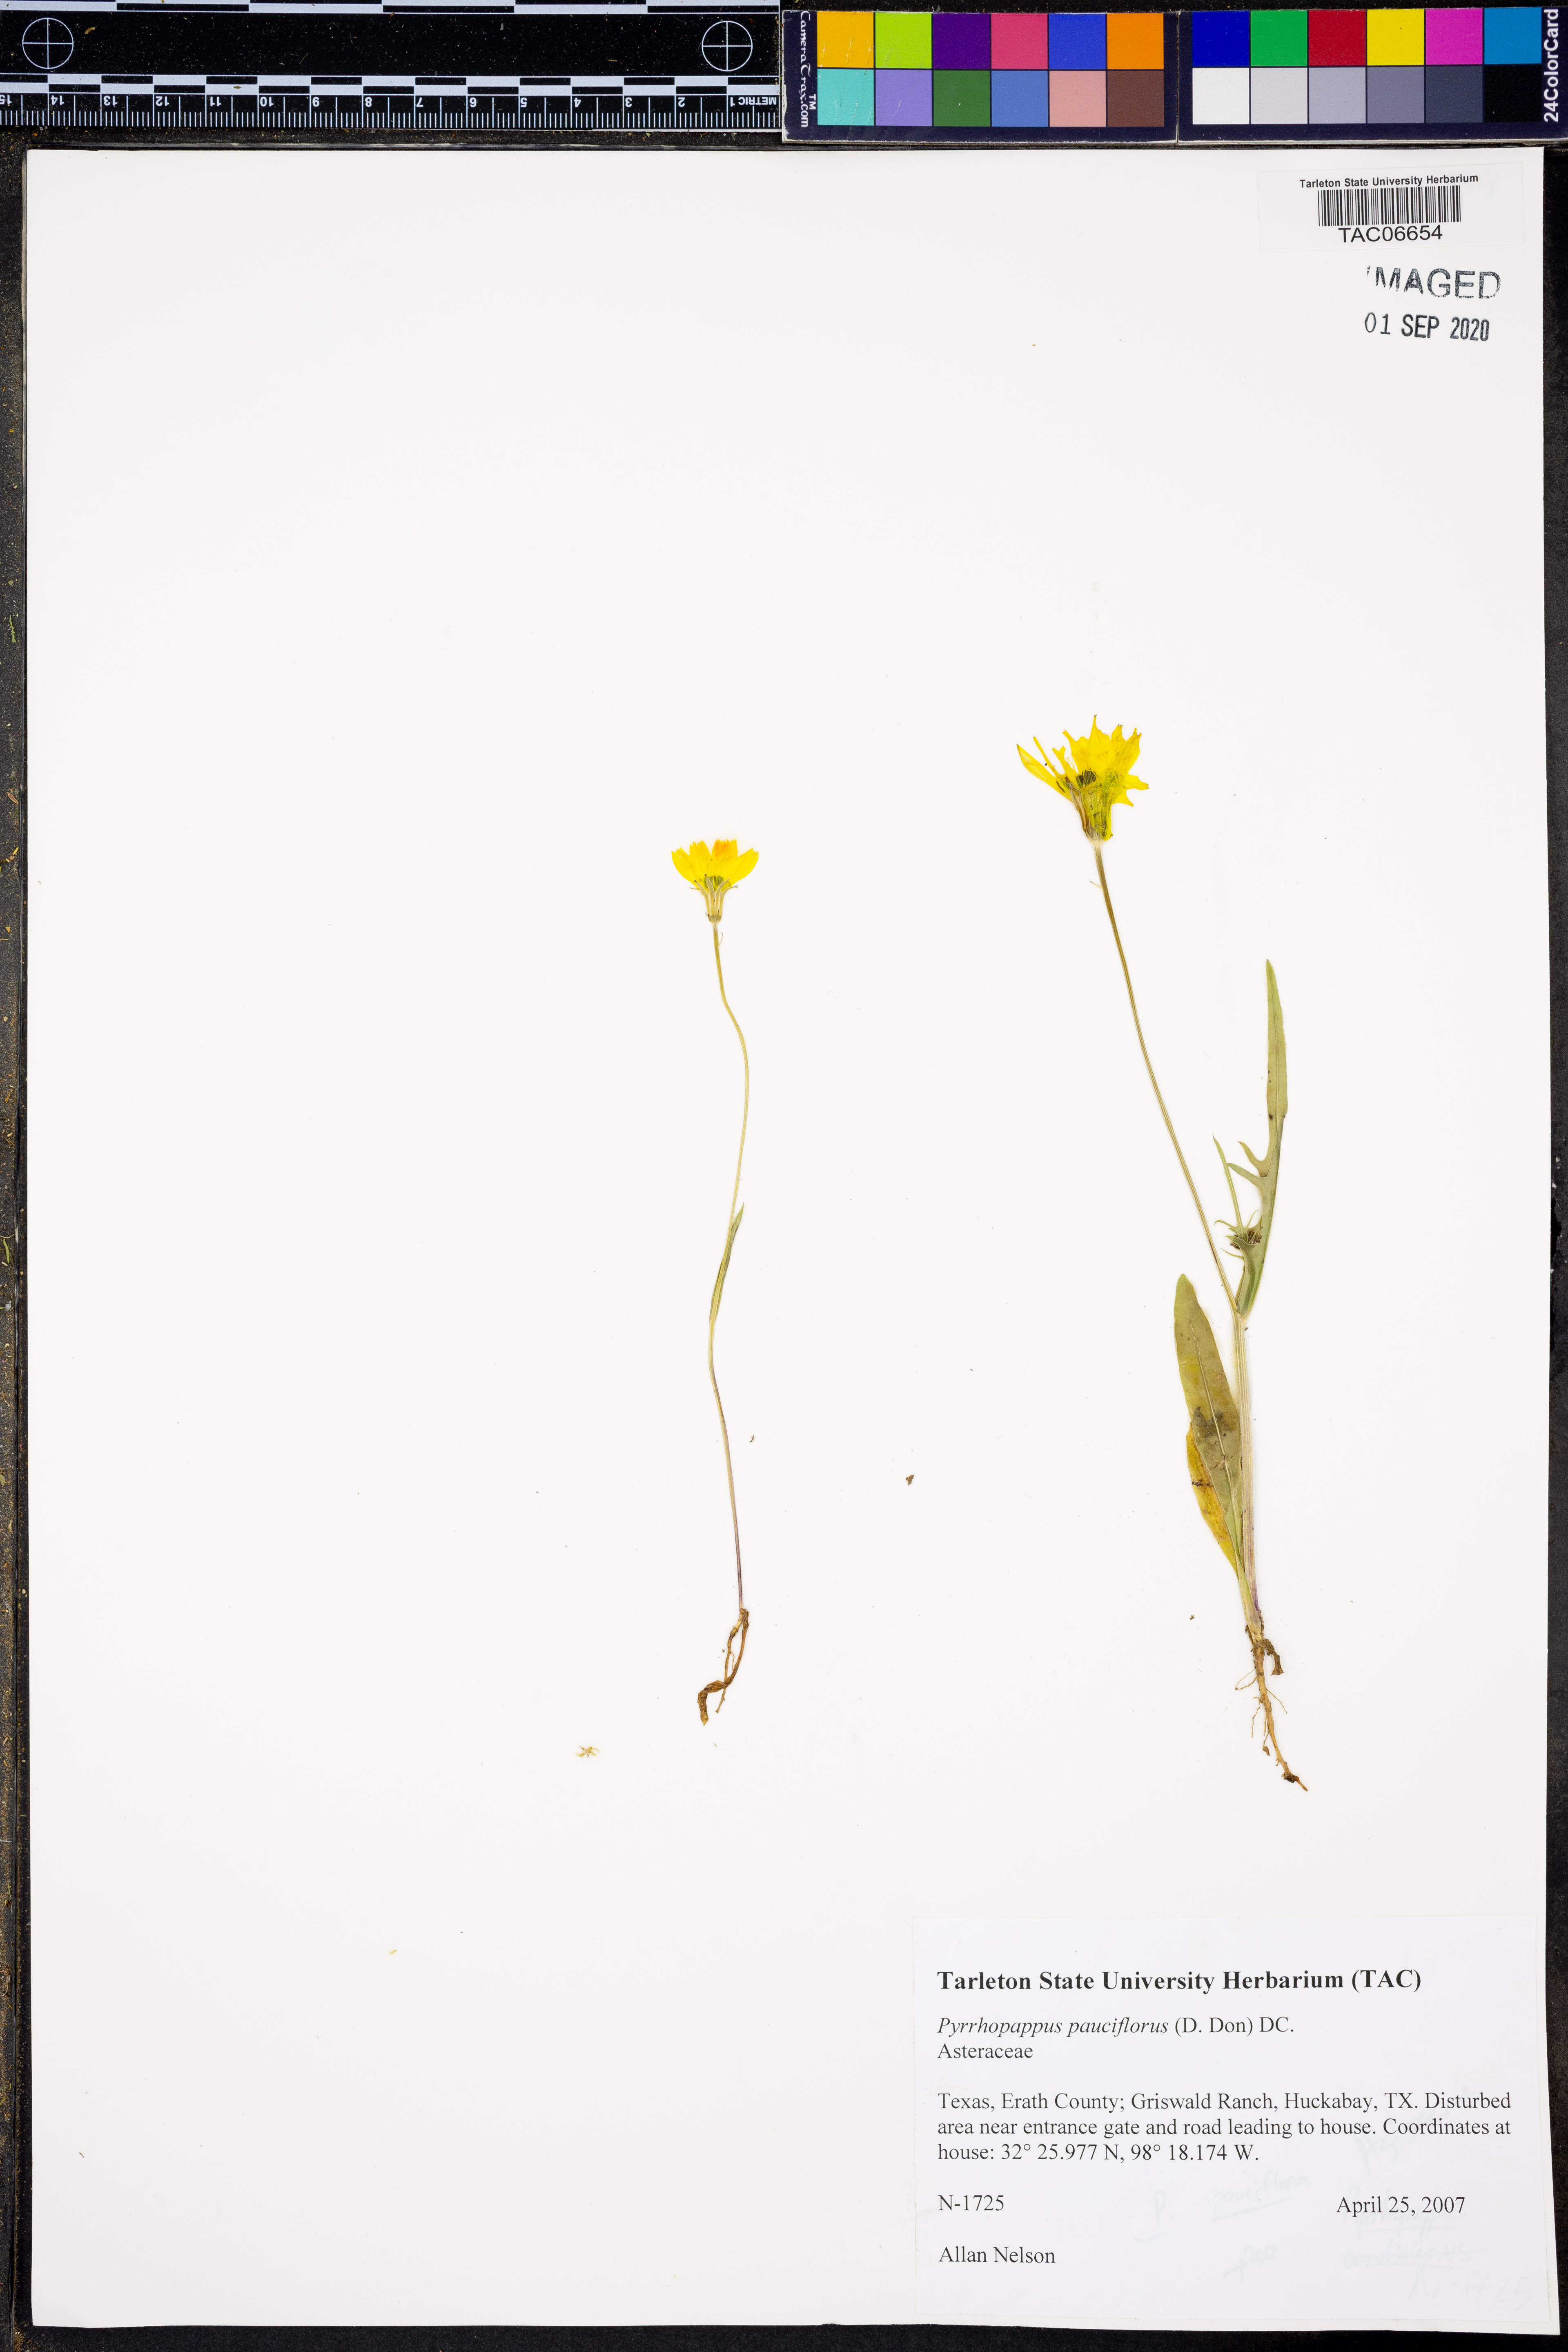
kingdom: Plantae
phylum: Tracheophyta
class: Magnoliopsida
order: Asterales
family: Asteraceae
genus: Pyrrhopappus
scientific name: Pyrrhopappus pauciflorus
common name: Texas false dandelion
